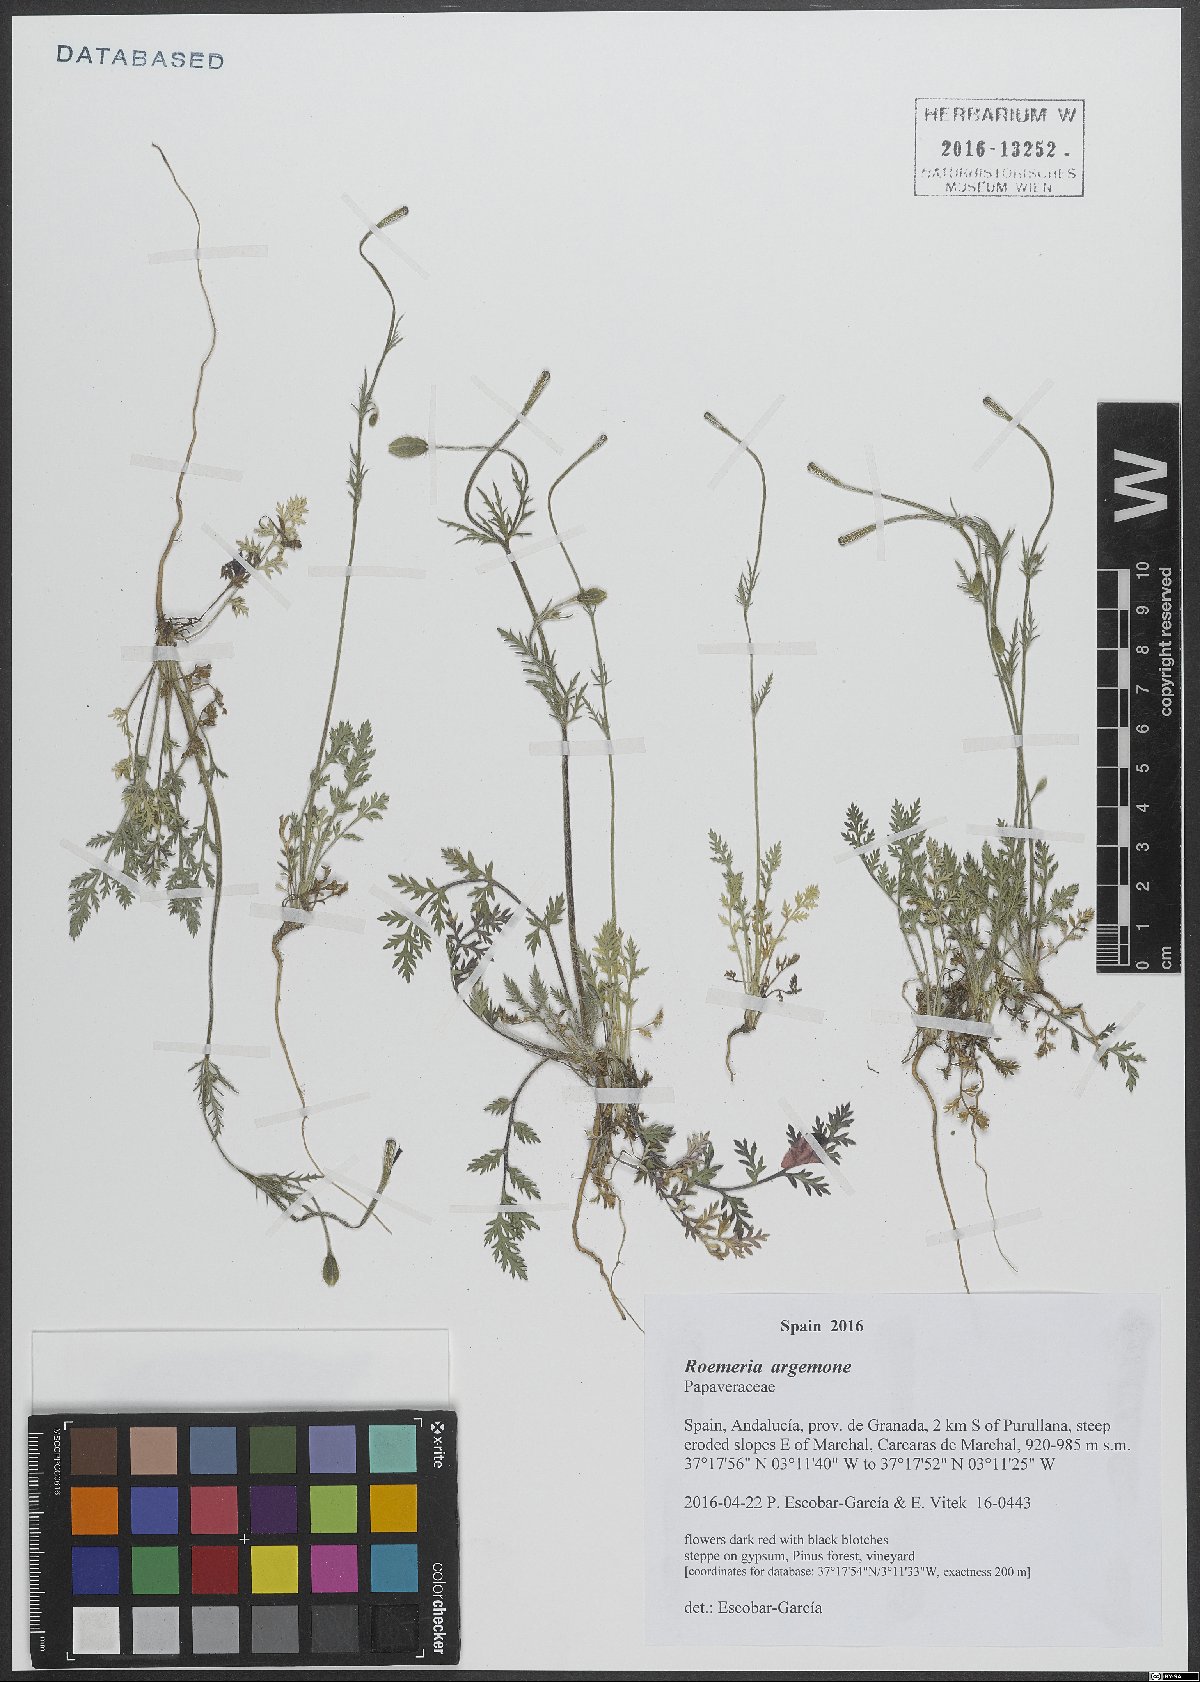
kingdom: Plantae
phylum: Tracheophyta
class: Magnoliopsida
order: Ranunculales
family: Papaveraceae
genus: Roemeria
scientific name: Roemeria argemone
